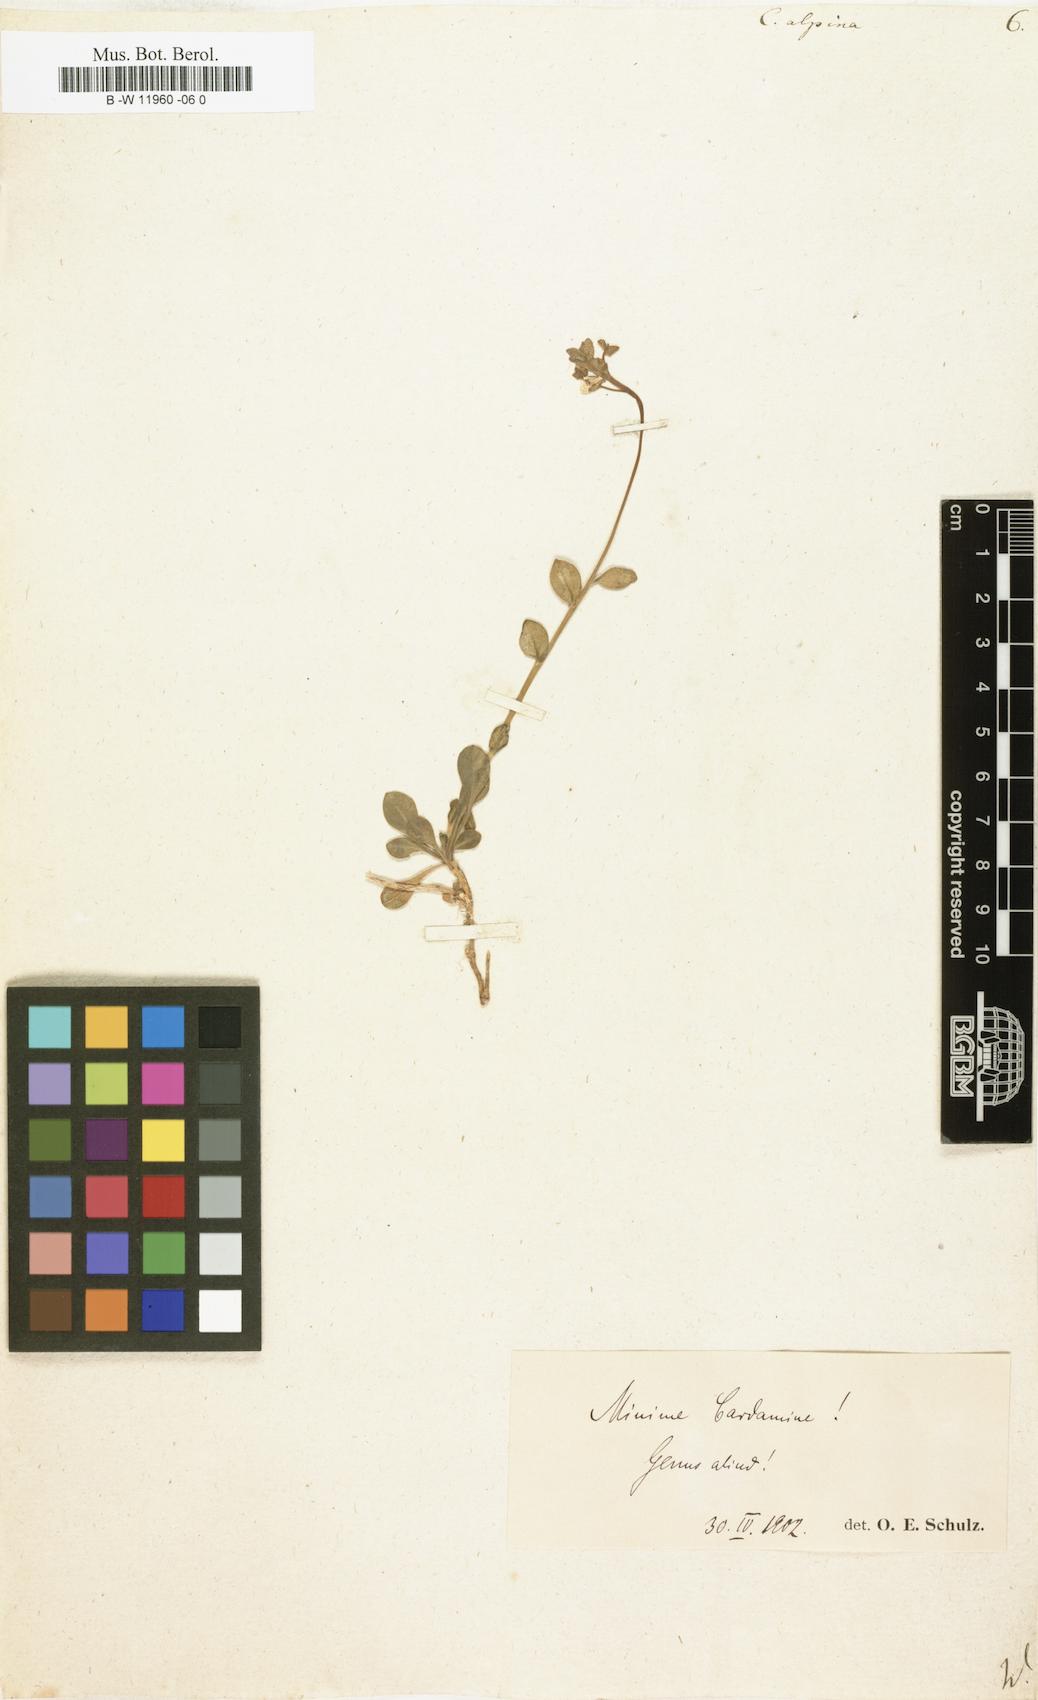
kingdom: Plantae
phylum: Tracheophyta
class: Magnoliopsida
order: Brassicales
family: Brassicaceae
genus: Cardamine
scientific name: Cardamine bellidifolia
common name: Alpine bittercress
